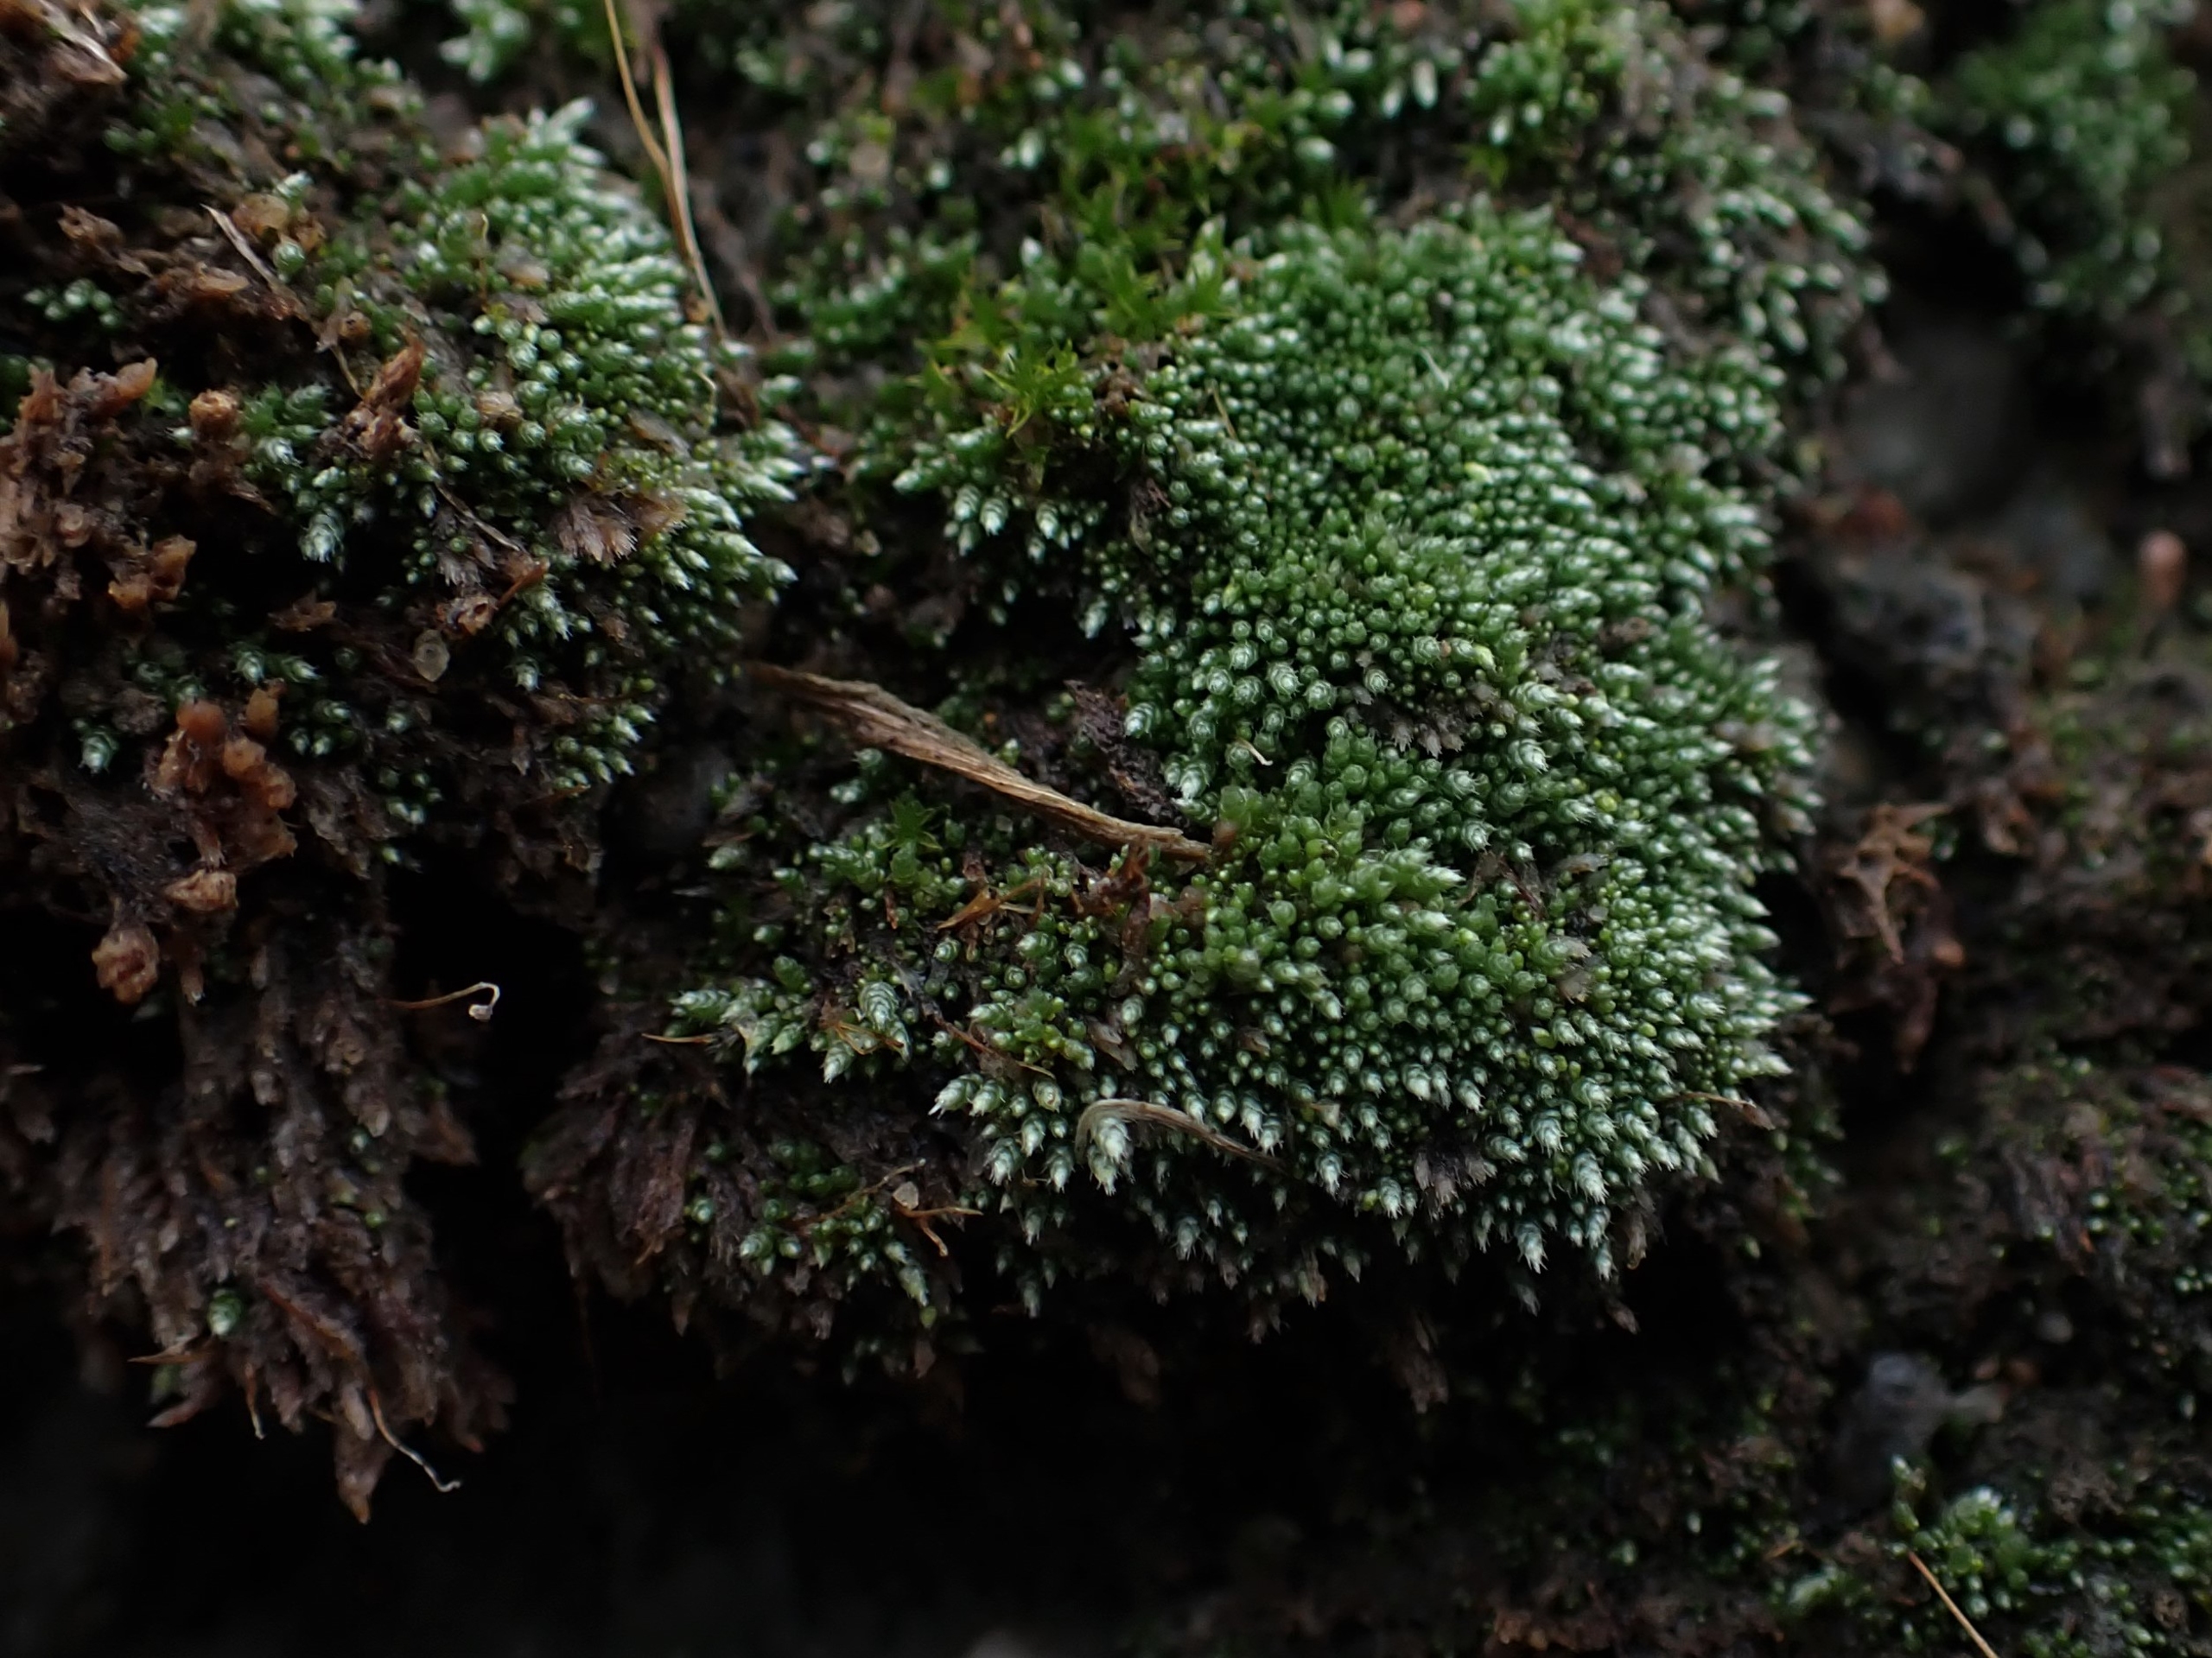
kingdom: Plantae
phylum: Bryophyta
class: Bryopsida
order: Bryales
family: Bryaceae
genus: Bryum
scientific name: Bryum argenteum
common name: Sølv-bryum
